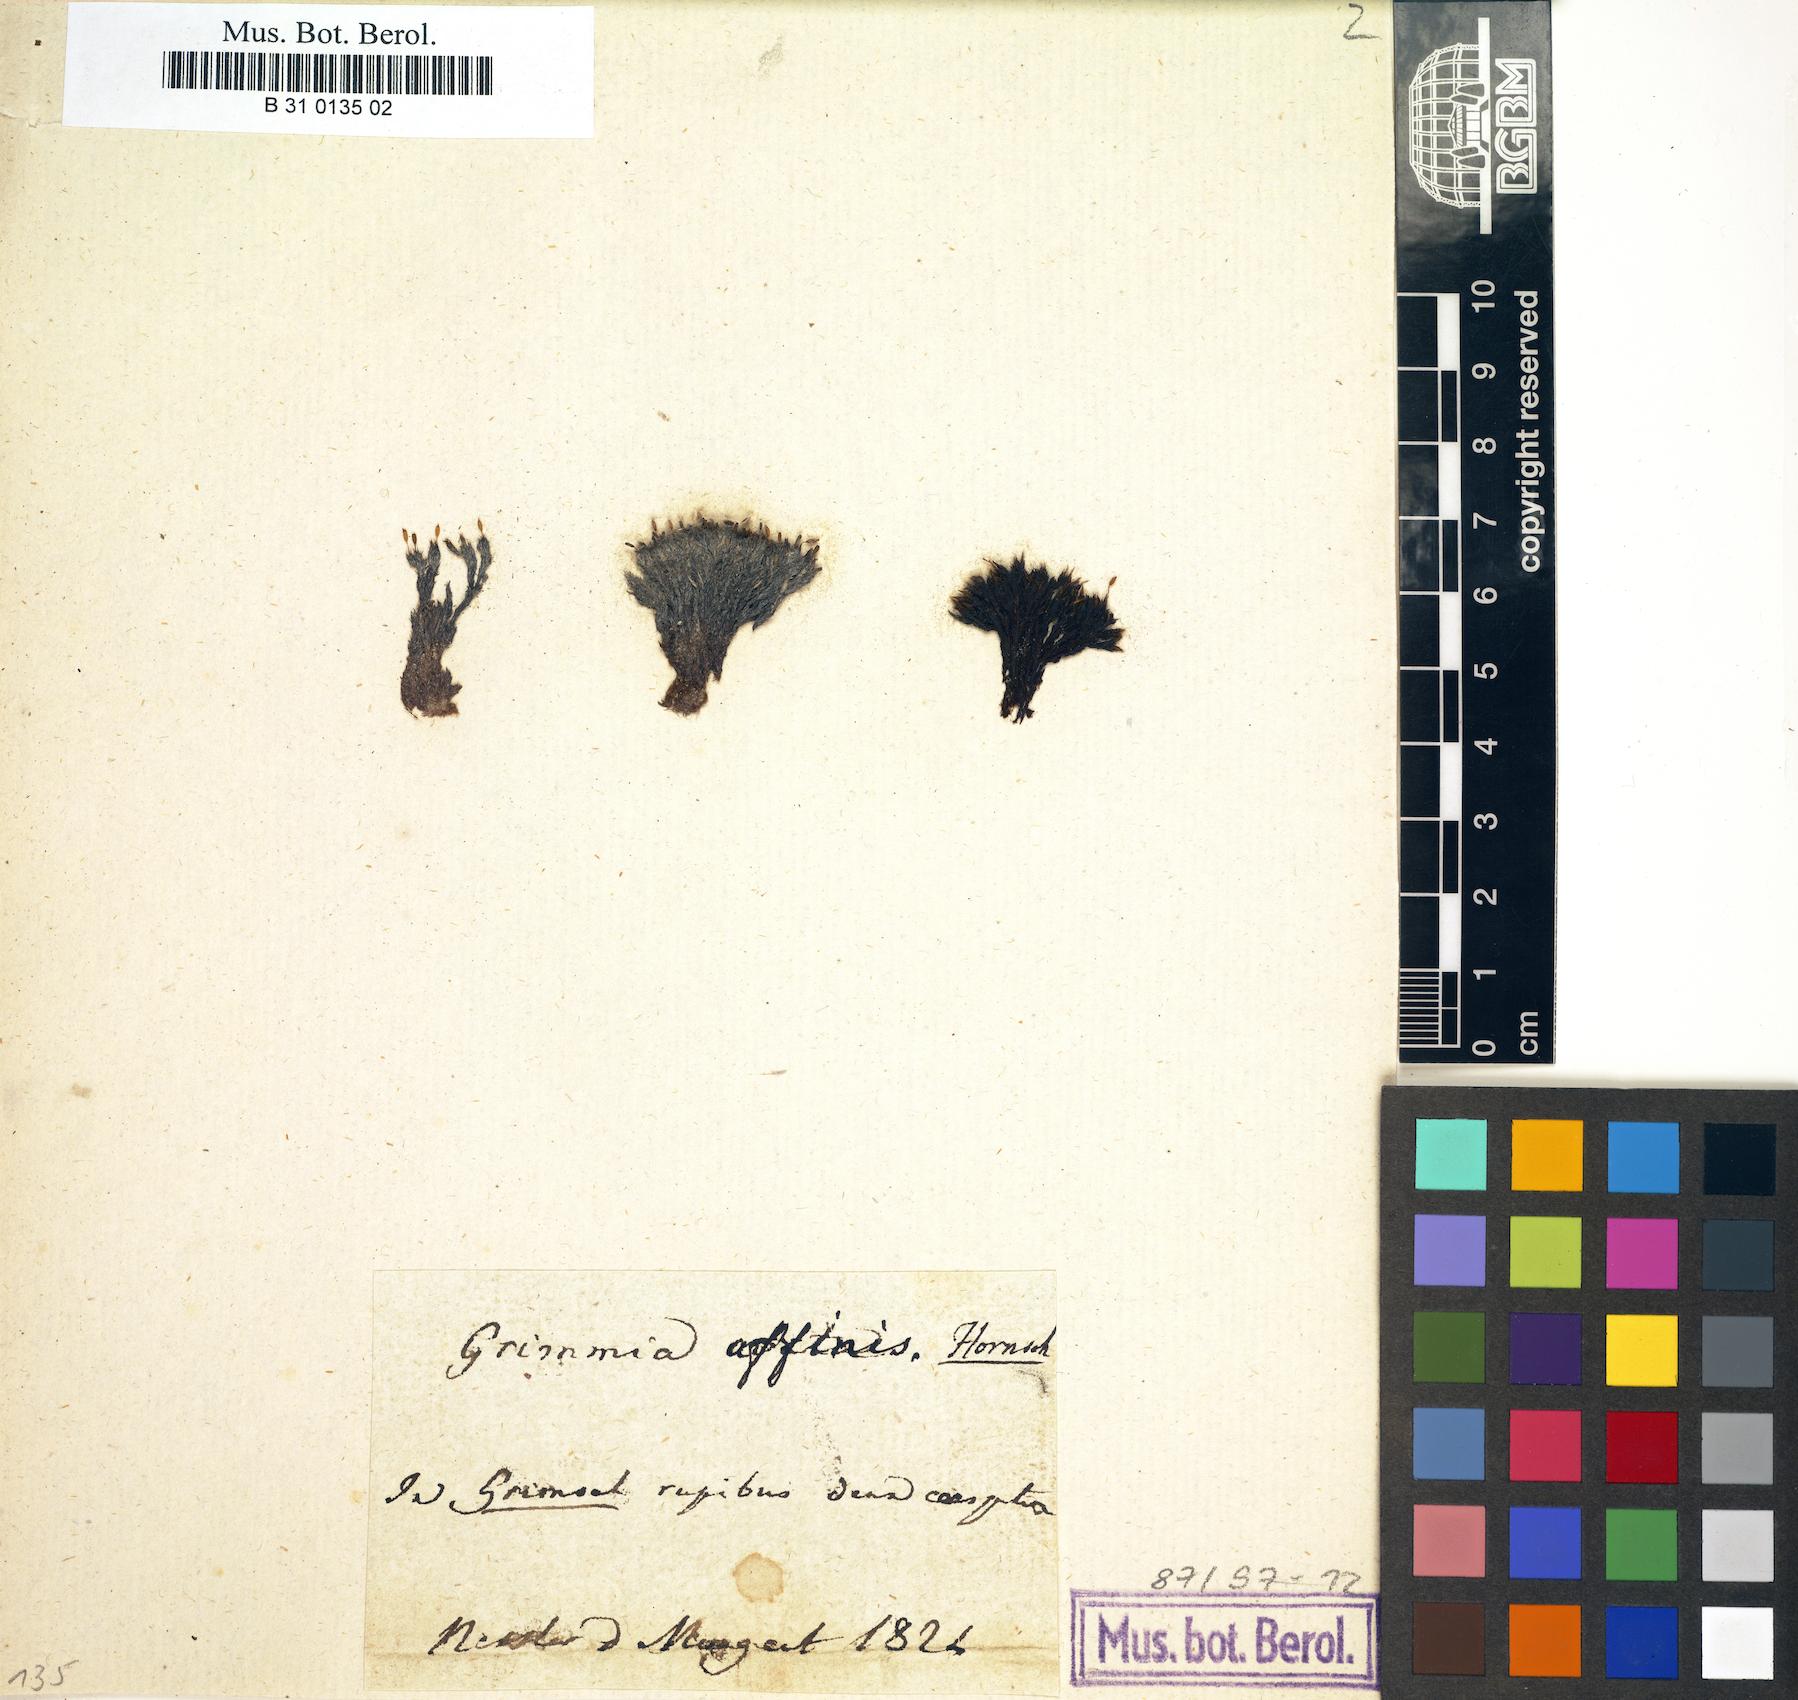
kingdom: Plantae
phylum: Bryophyta
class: Bryopsida
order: Grimmiales
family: Grimmiaceae
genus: Grimmia
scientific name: Grimmia longirostris
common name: Long-beaked grimmia
